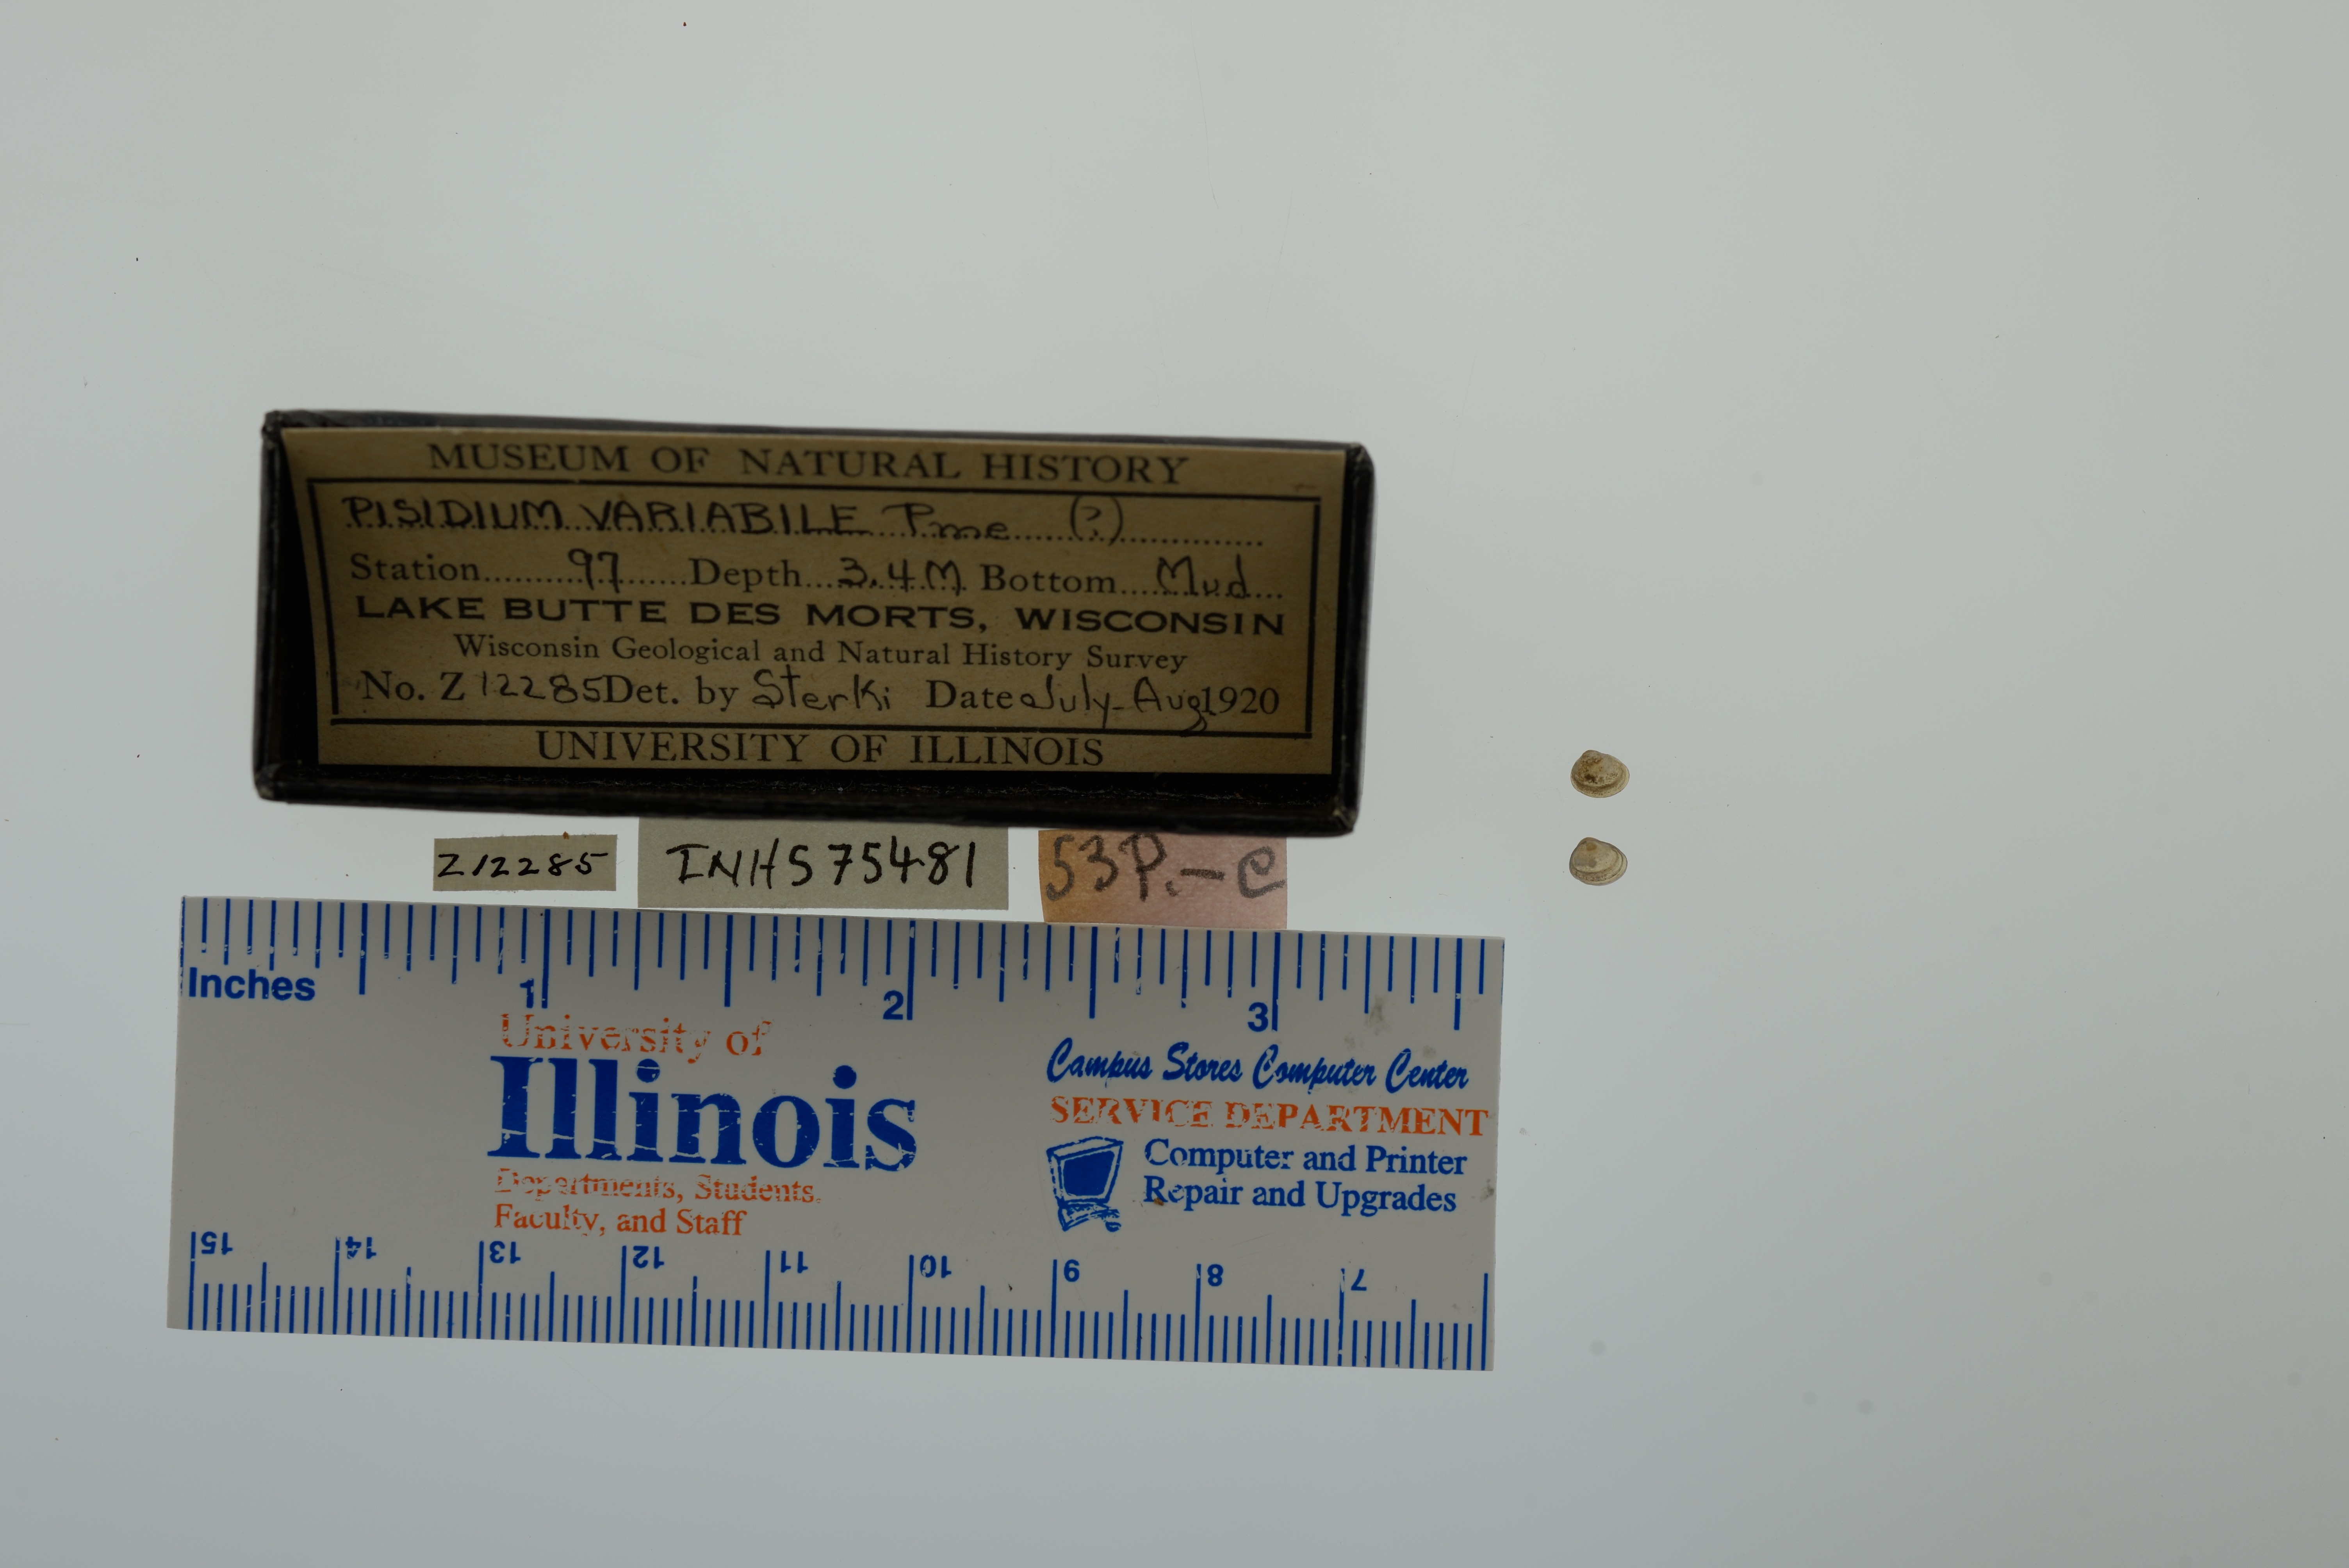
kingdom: Animalia
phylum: Mollusca
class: Bivalvia
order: Sphaeriida
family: Sphaeriidae
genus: Euglesa
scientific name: Euglesa variabilis
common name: Triangular peaclam
